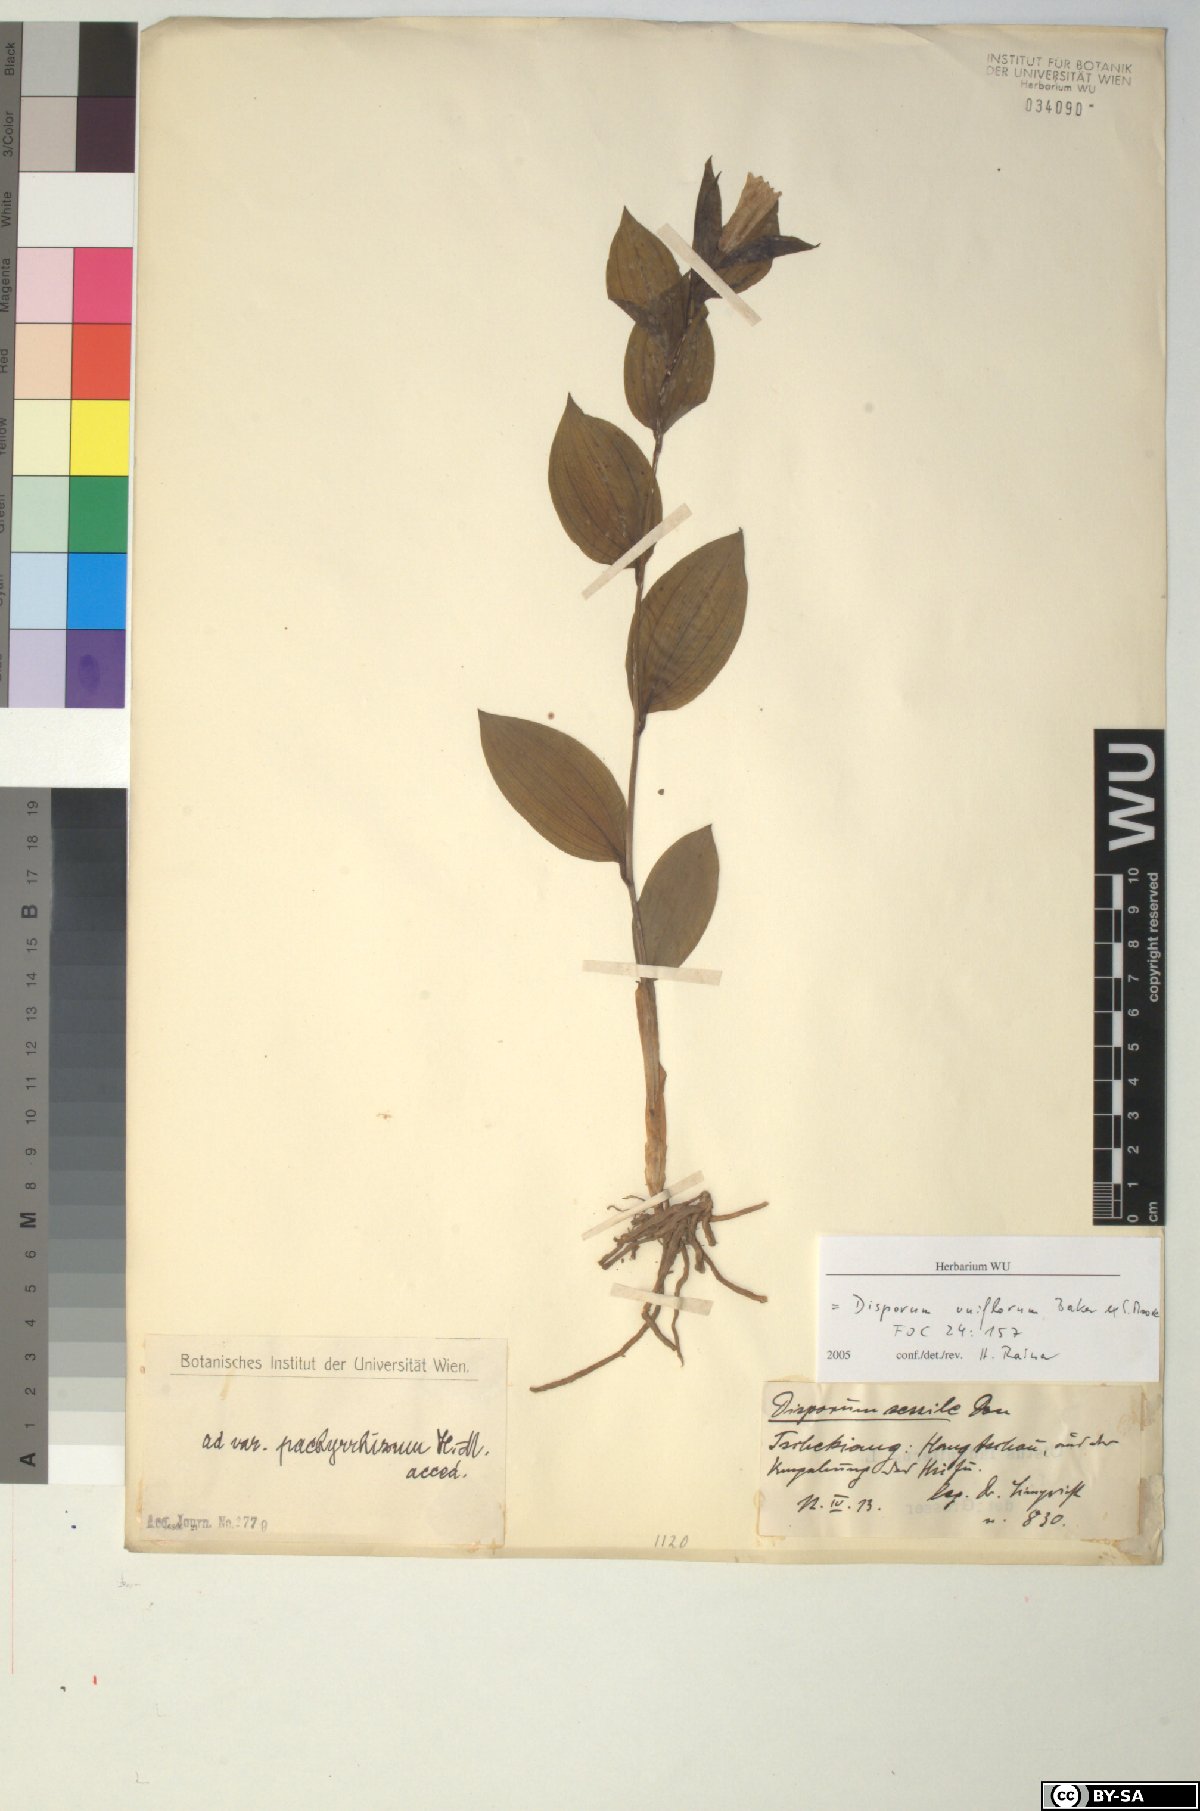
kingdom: Plantae
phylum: Tracheophyta
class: Liliopsida
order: Liliales
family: Colchicaceae
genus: Disporum
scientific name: Disporum uniflorum
